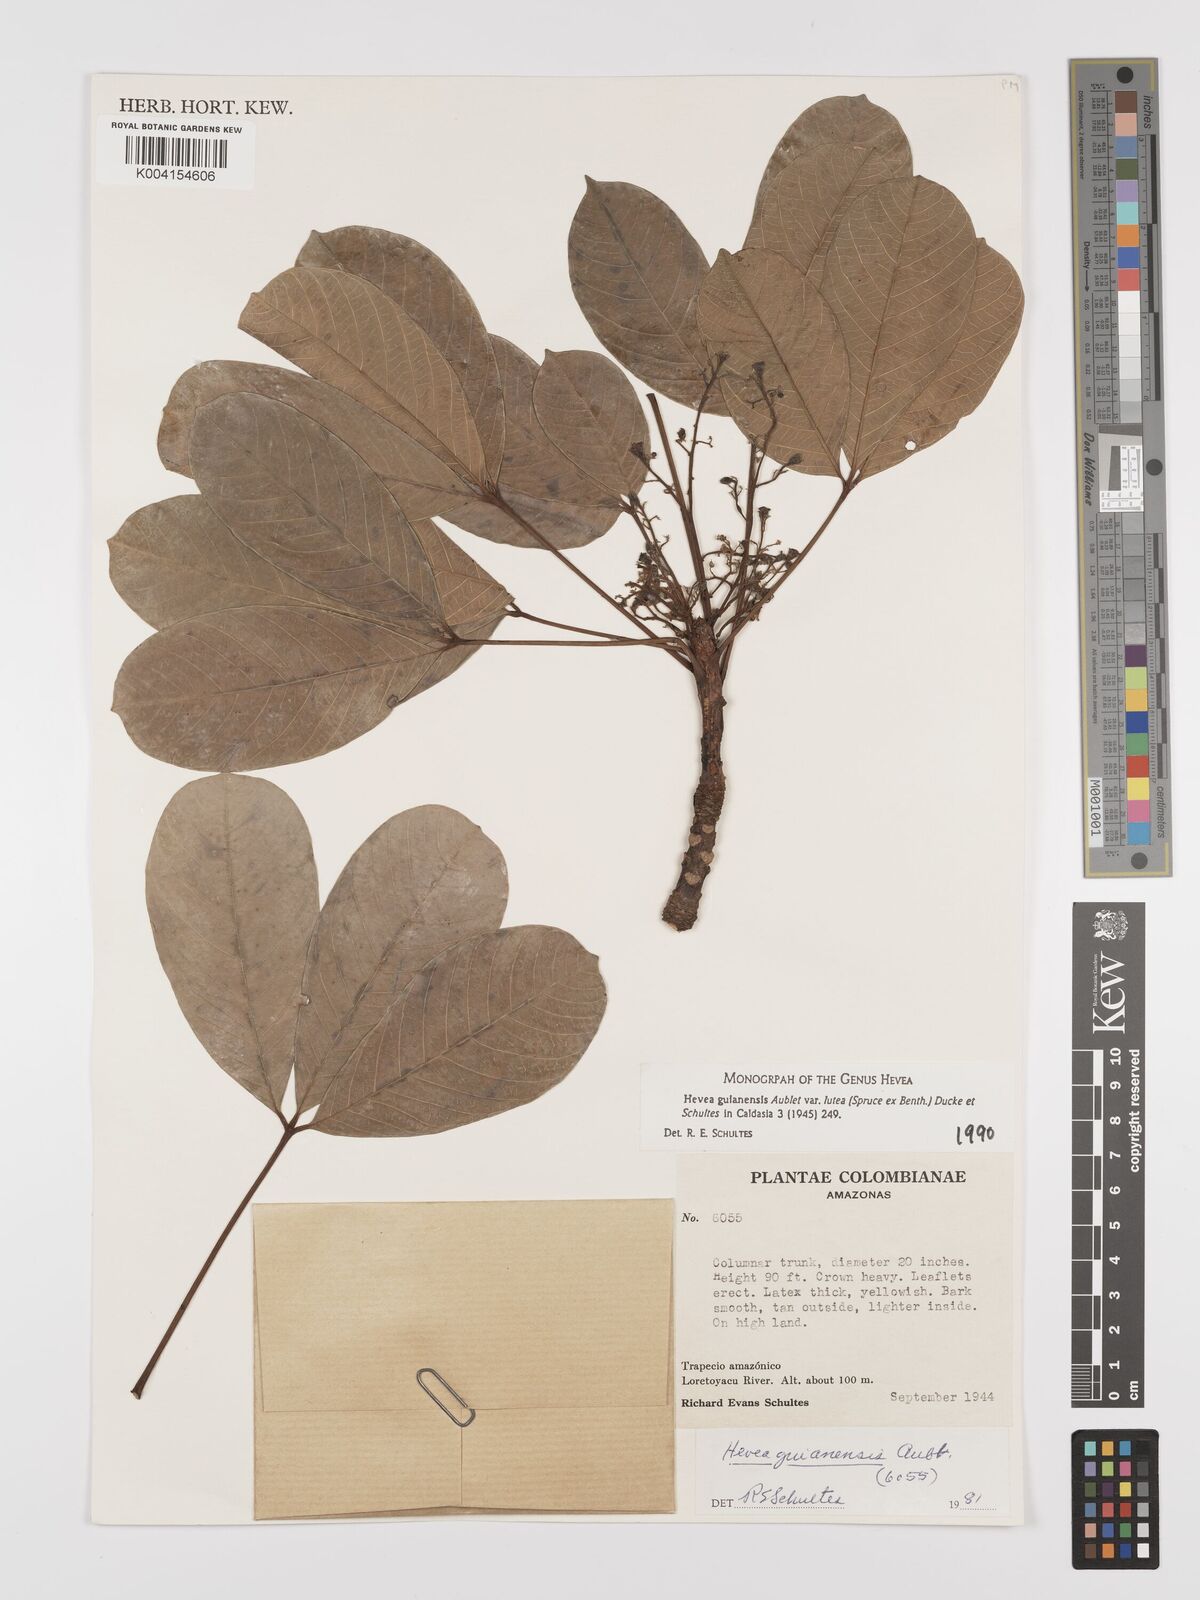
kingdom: Plantae
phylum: Tracheophyta
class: Magnoliopsida
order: Malpighiales
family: Euphorbiaceae
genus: Hevea
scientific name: Hevea guianensis
